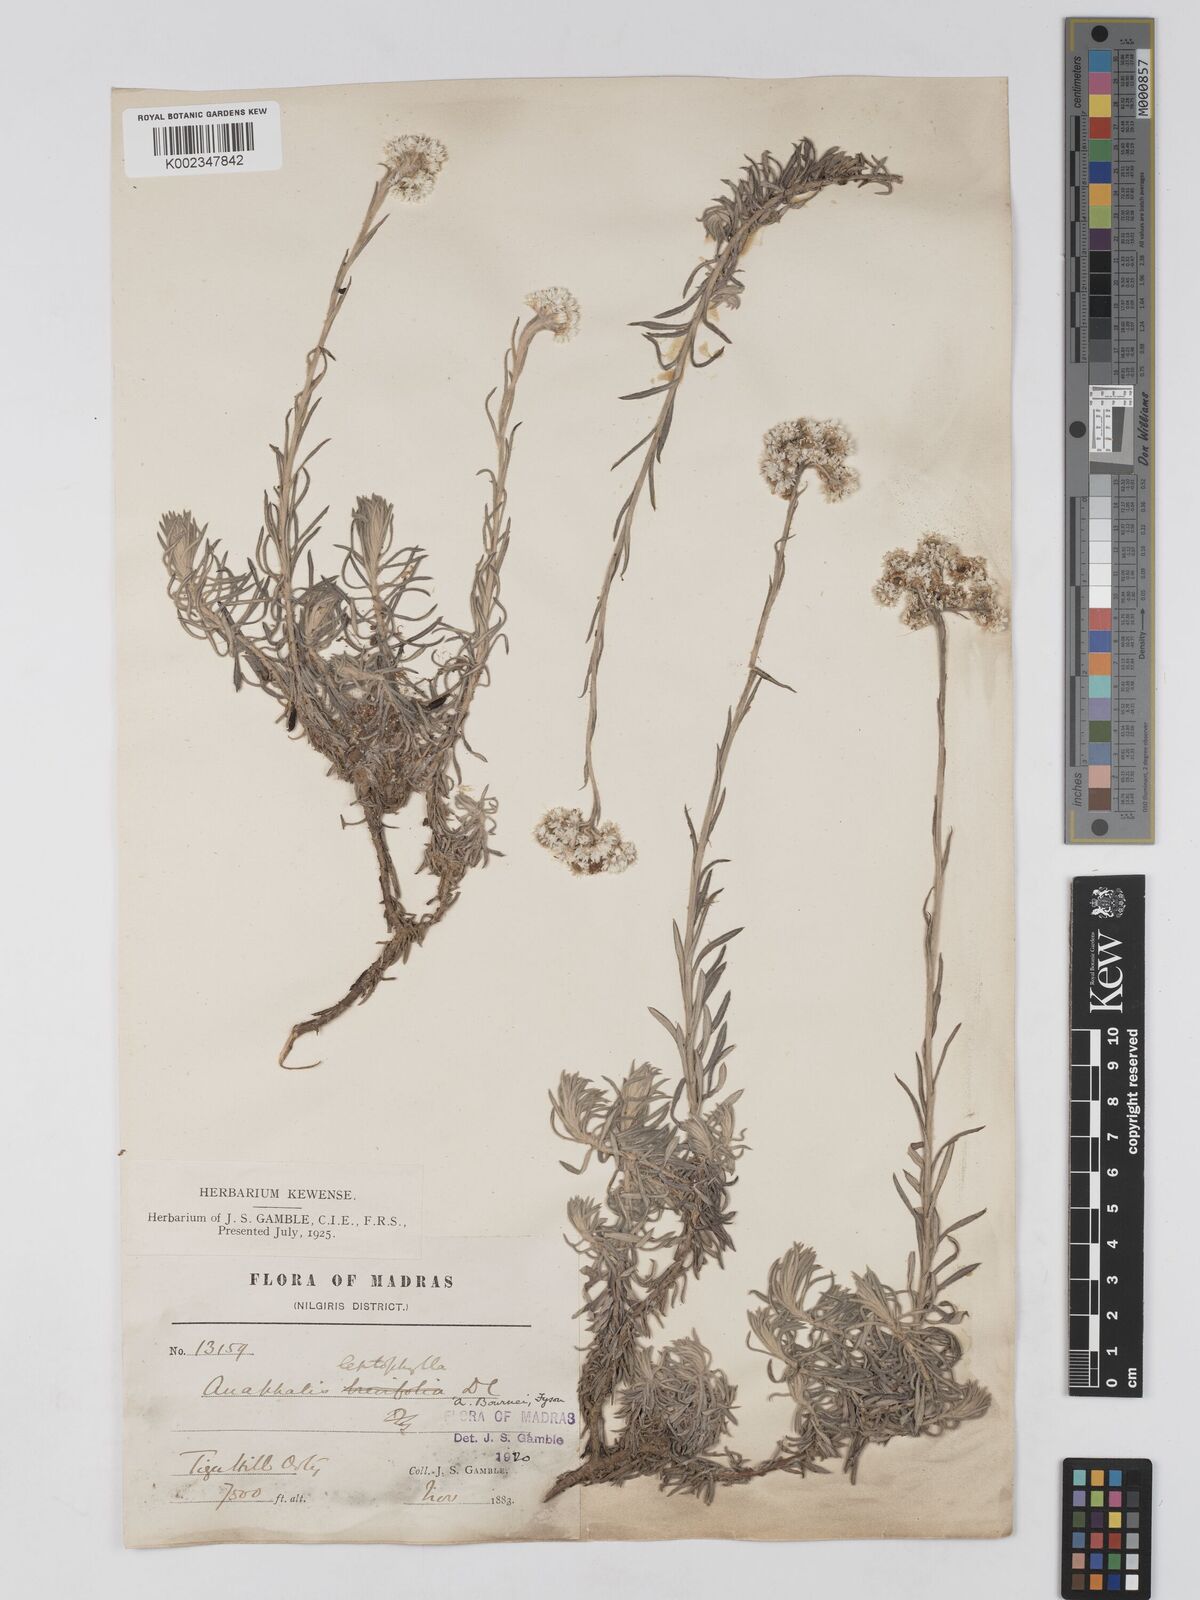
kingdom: Plantae
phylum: Tracheophyta
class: Magnoliopsida
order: Asterales
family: Asteraceae
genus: Anaphalis
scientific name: Anaphalis bournei
